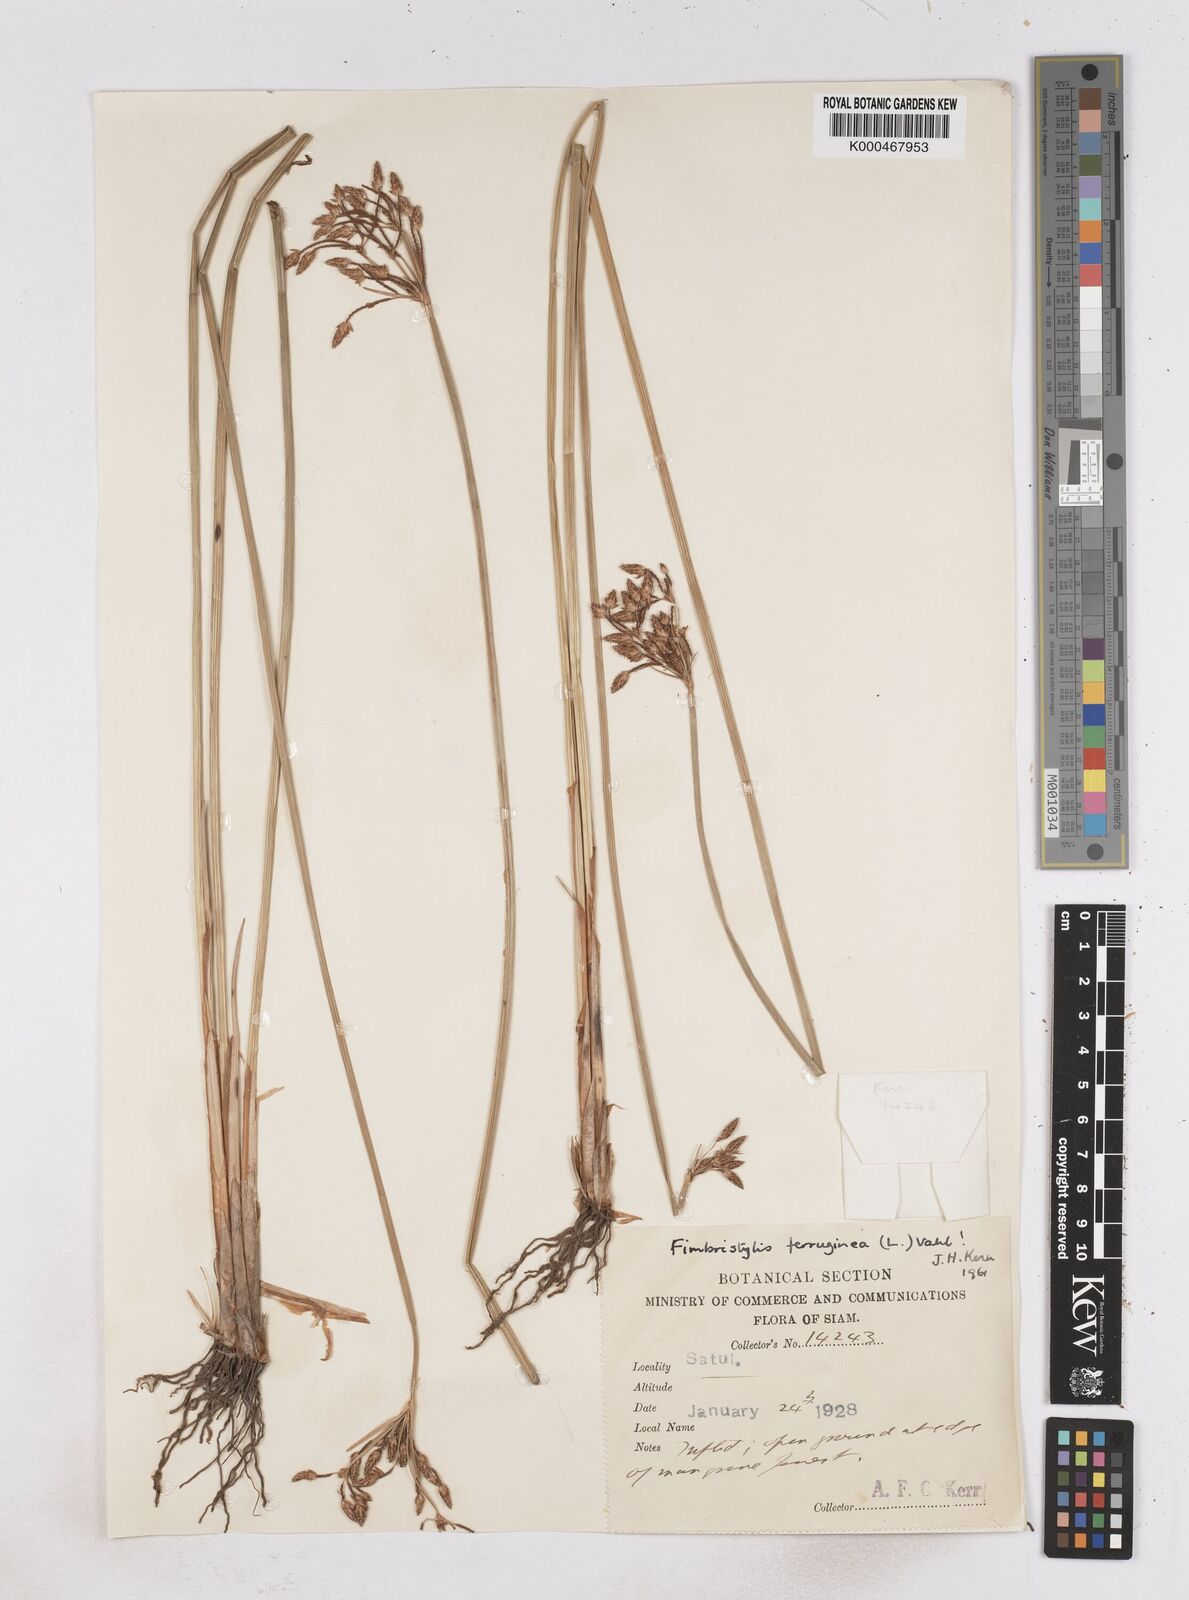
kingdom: Plantae
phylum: Tracheophyta
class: Liliopsida
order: Poales
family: Cyperaceae
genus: Fimbristylis
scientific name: Fimbristylis ferruginea
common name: West indian fimbry
